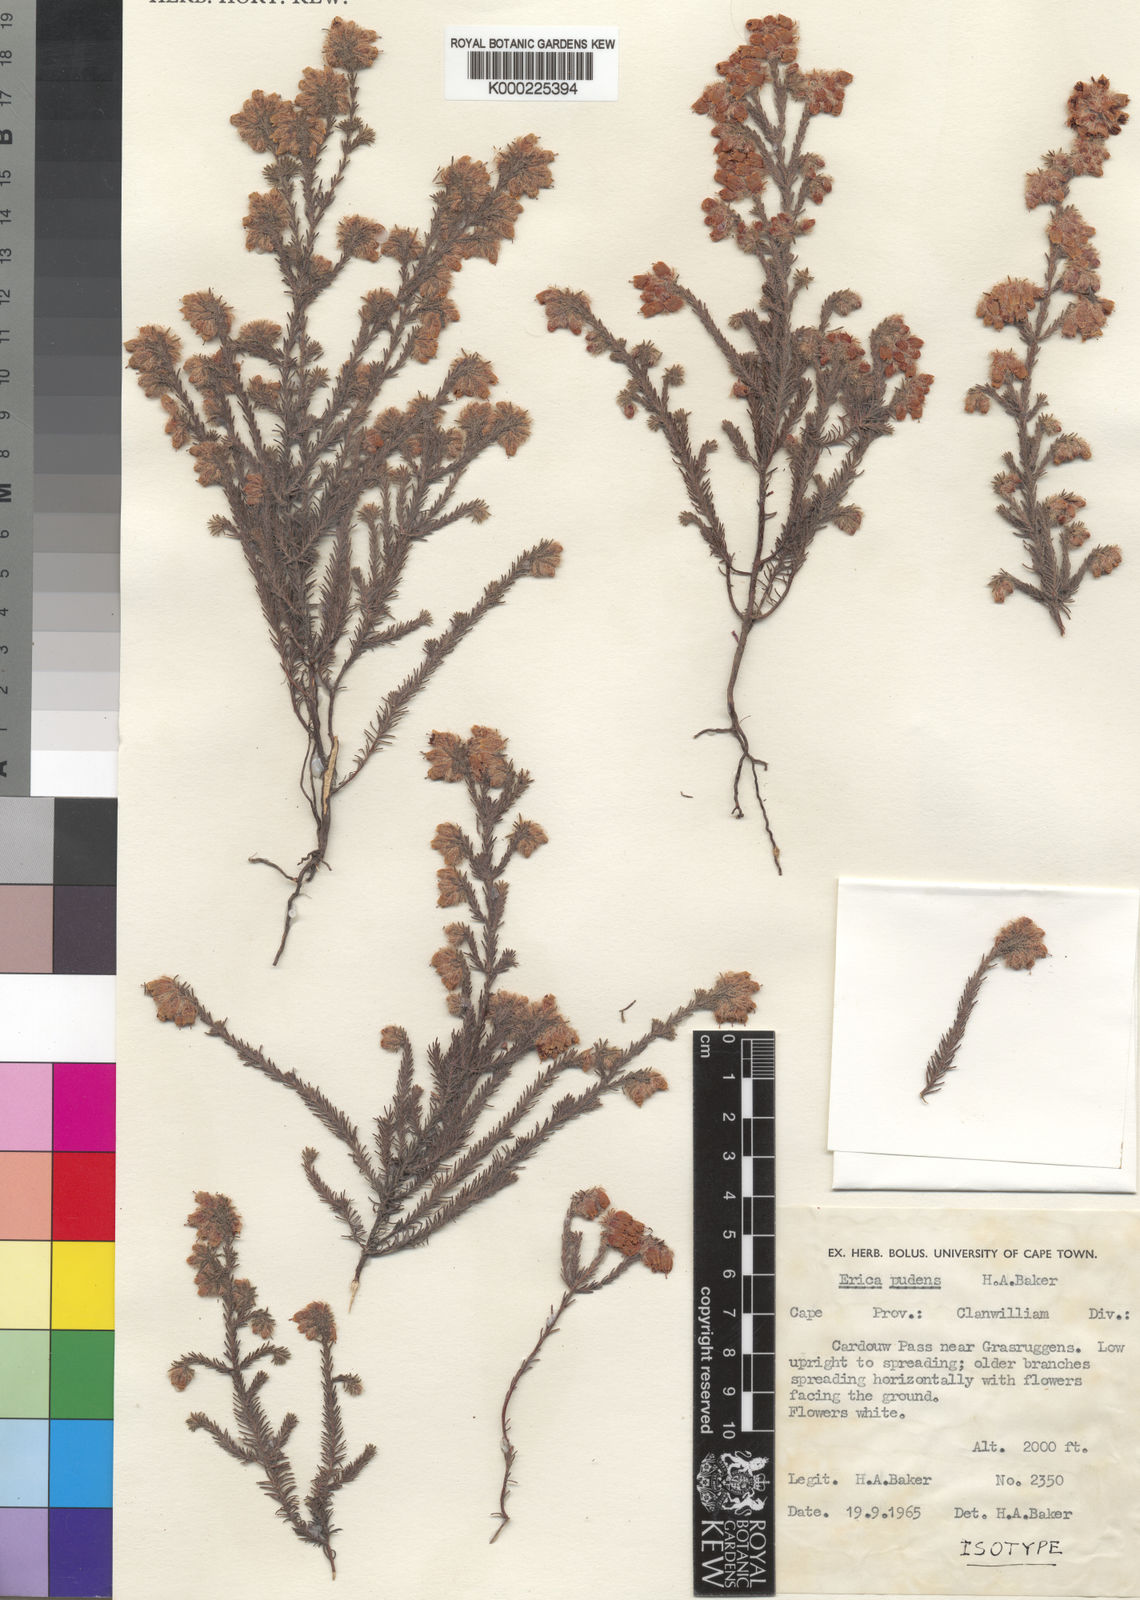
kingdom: Plantae
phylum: Tracheophyta
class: Magnoliopsida
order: Ericales
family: Ericaceae
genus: Erica
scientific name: Erica pudens
